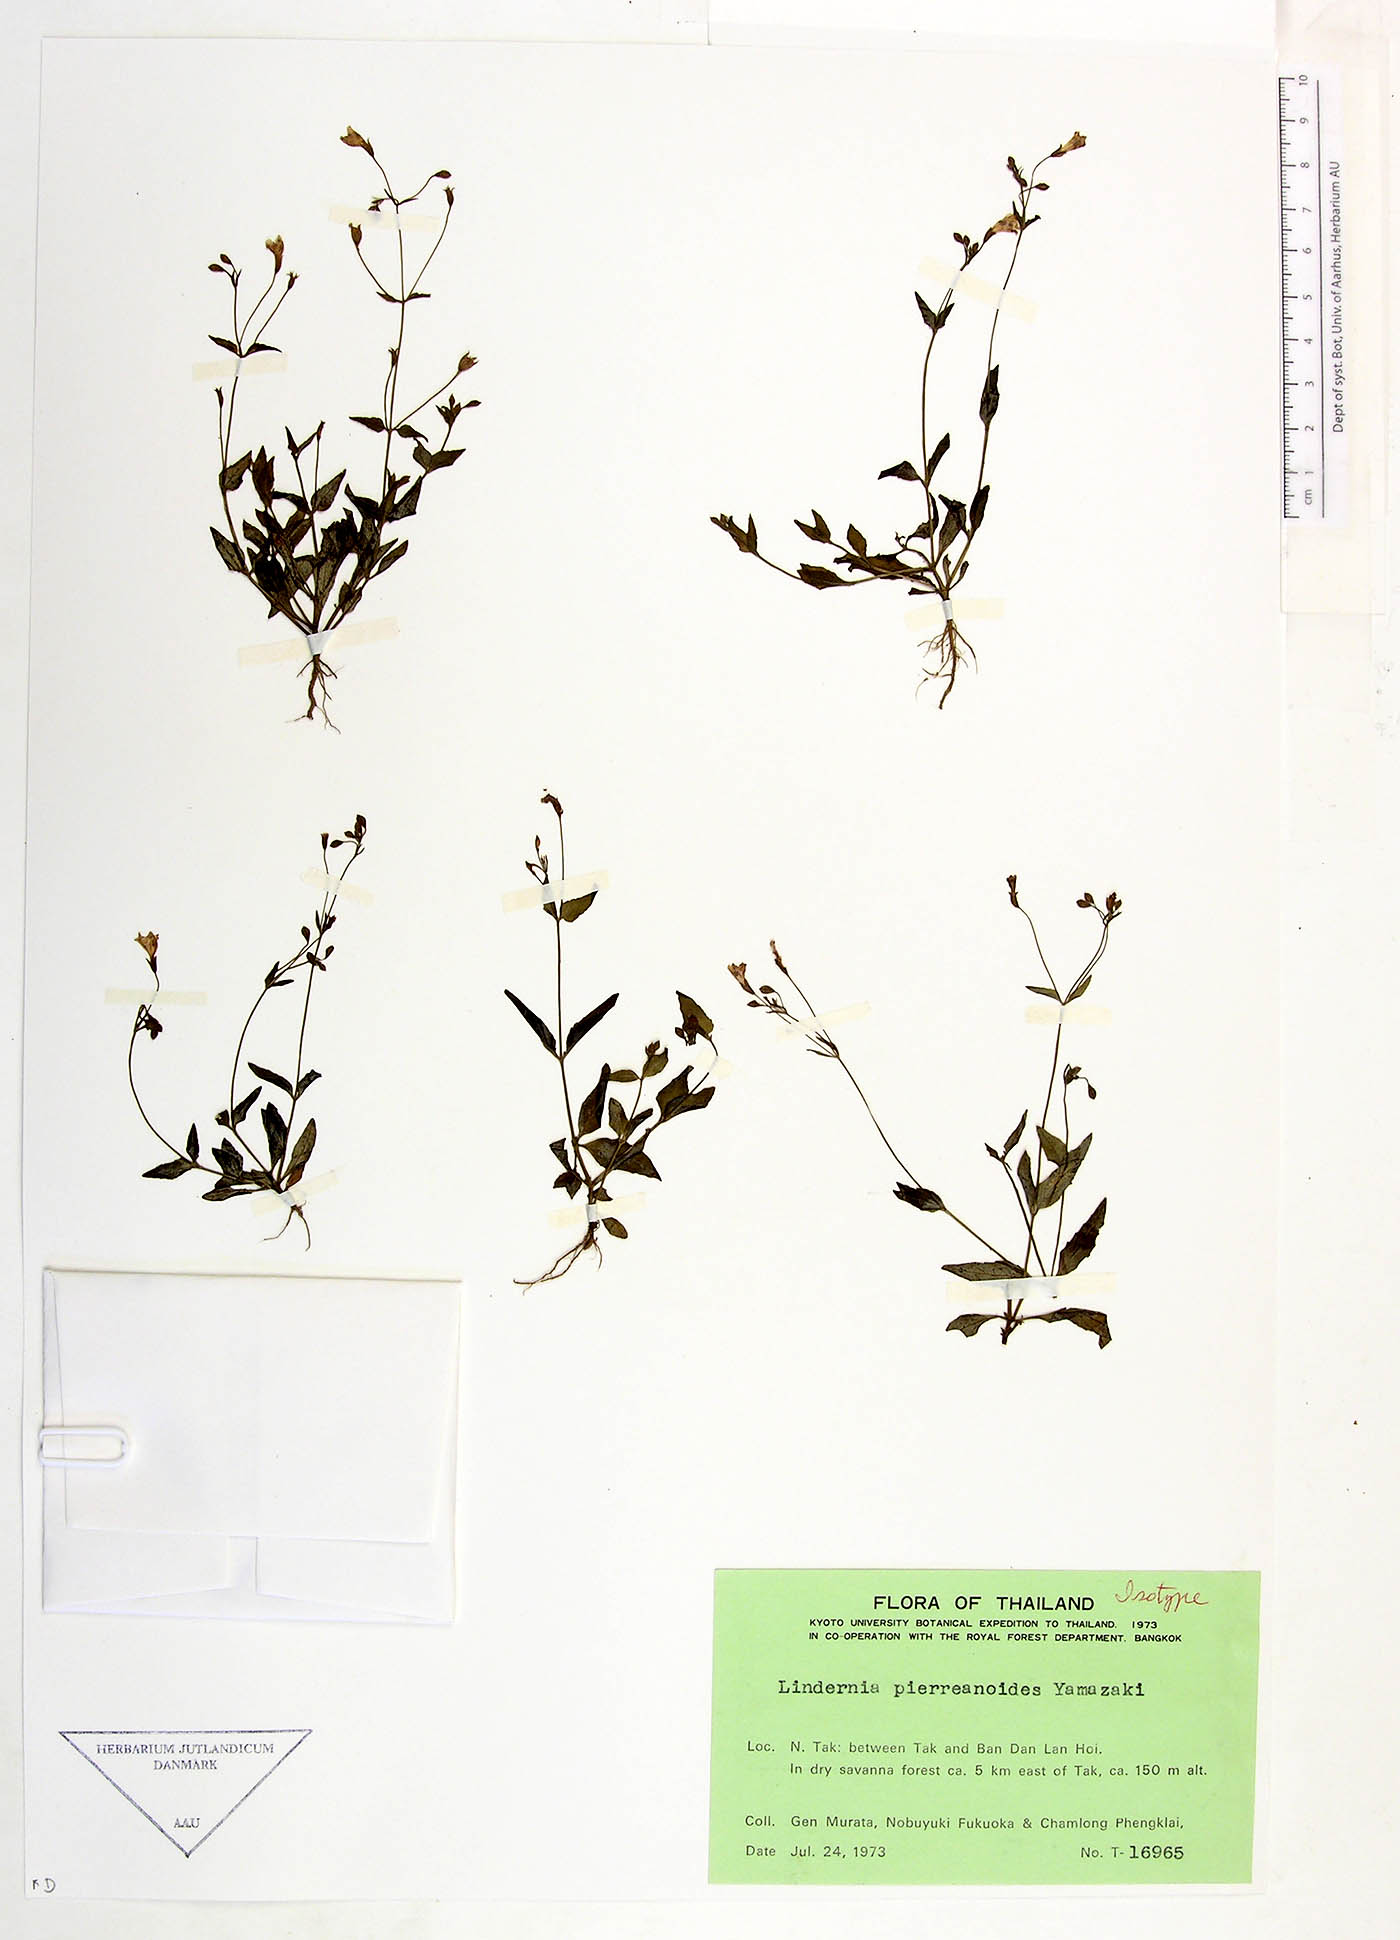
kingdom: Plantae
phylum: Tracheophyta
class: Magnoliopsida
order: Lamiales
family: Linderniaceae
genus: Torenia
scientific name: Torenia pierreanoides
